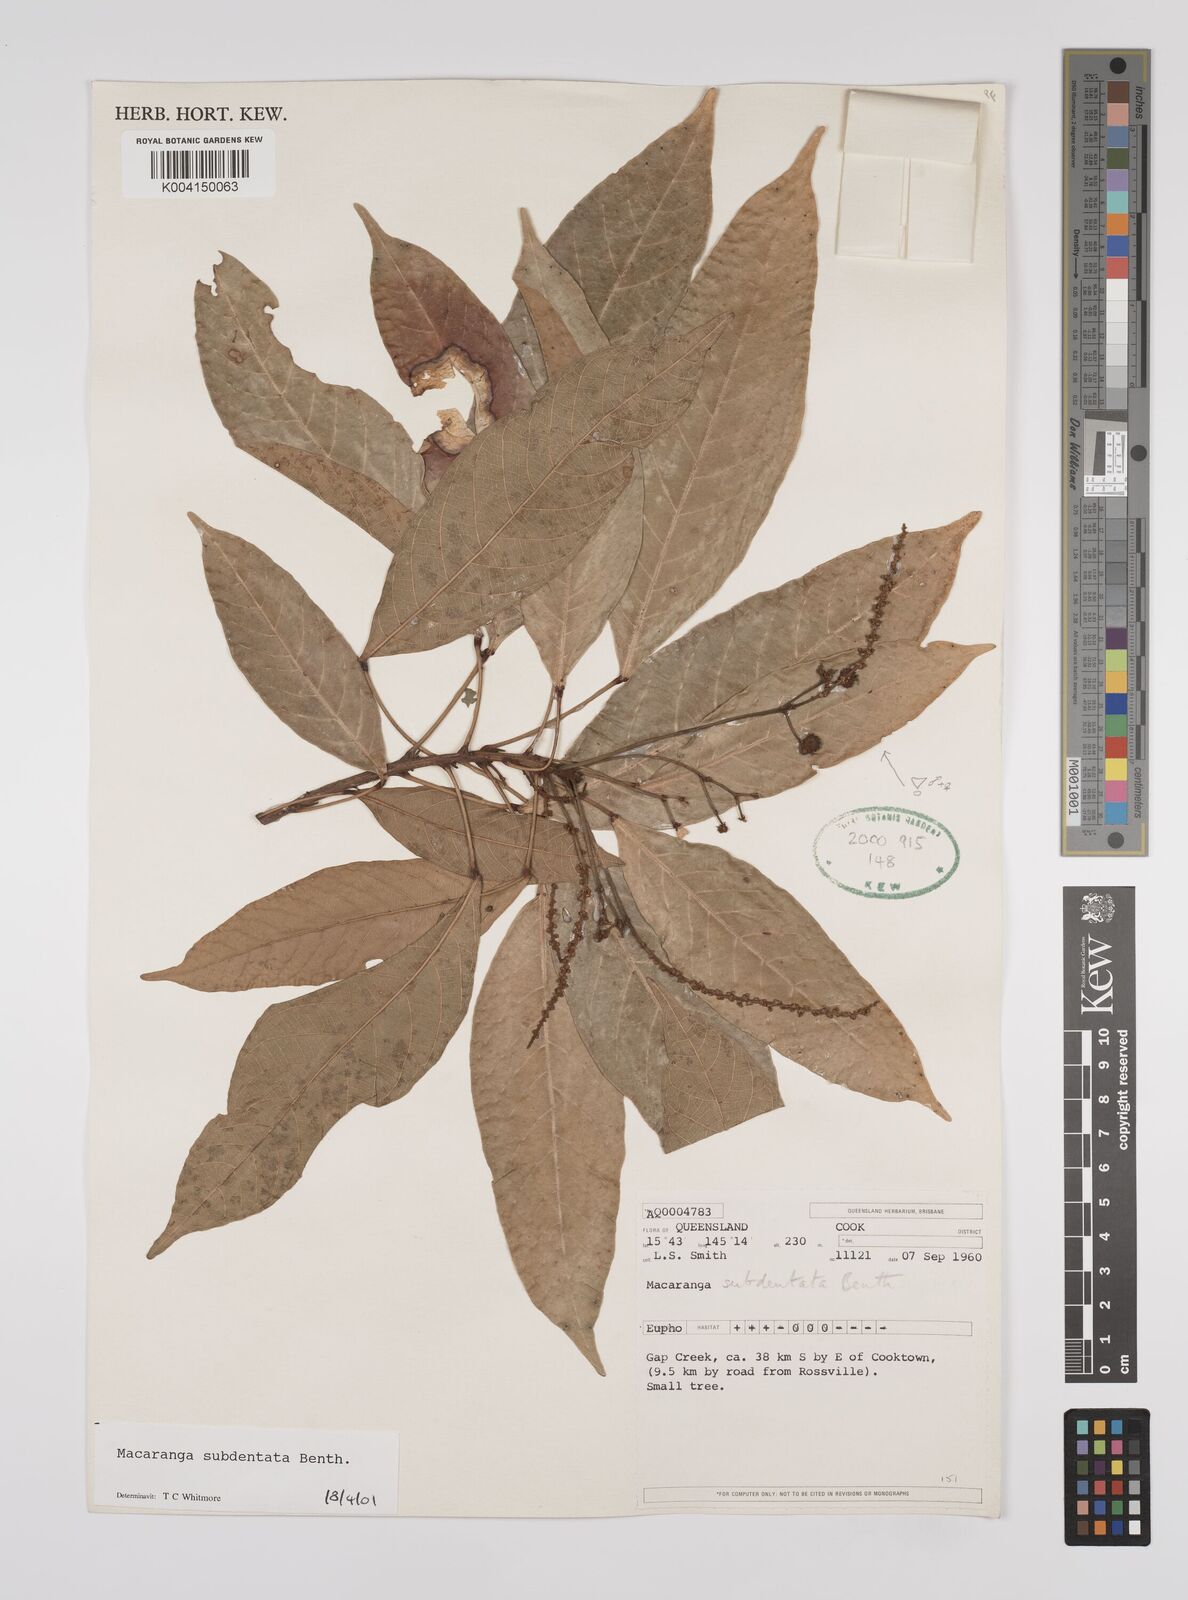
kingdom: Plantae
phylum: Tracheophyta
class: Magnoliopsida
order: Malpighiales
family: Euphorbiaceae
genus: Macaranga
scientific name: Macaranga subdentata
